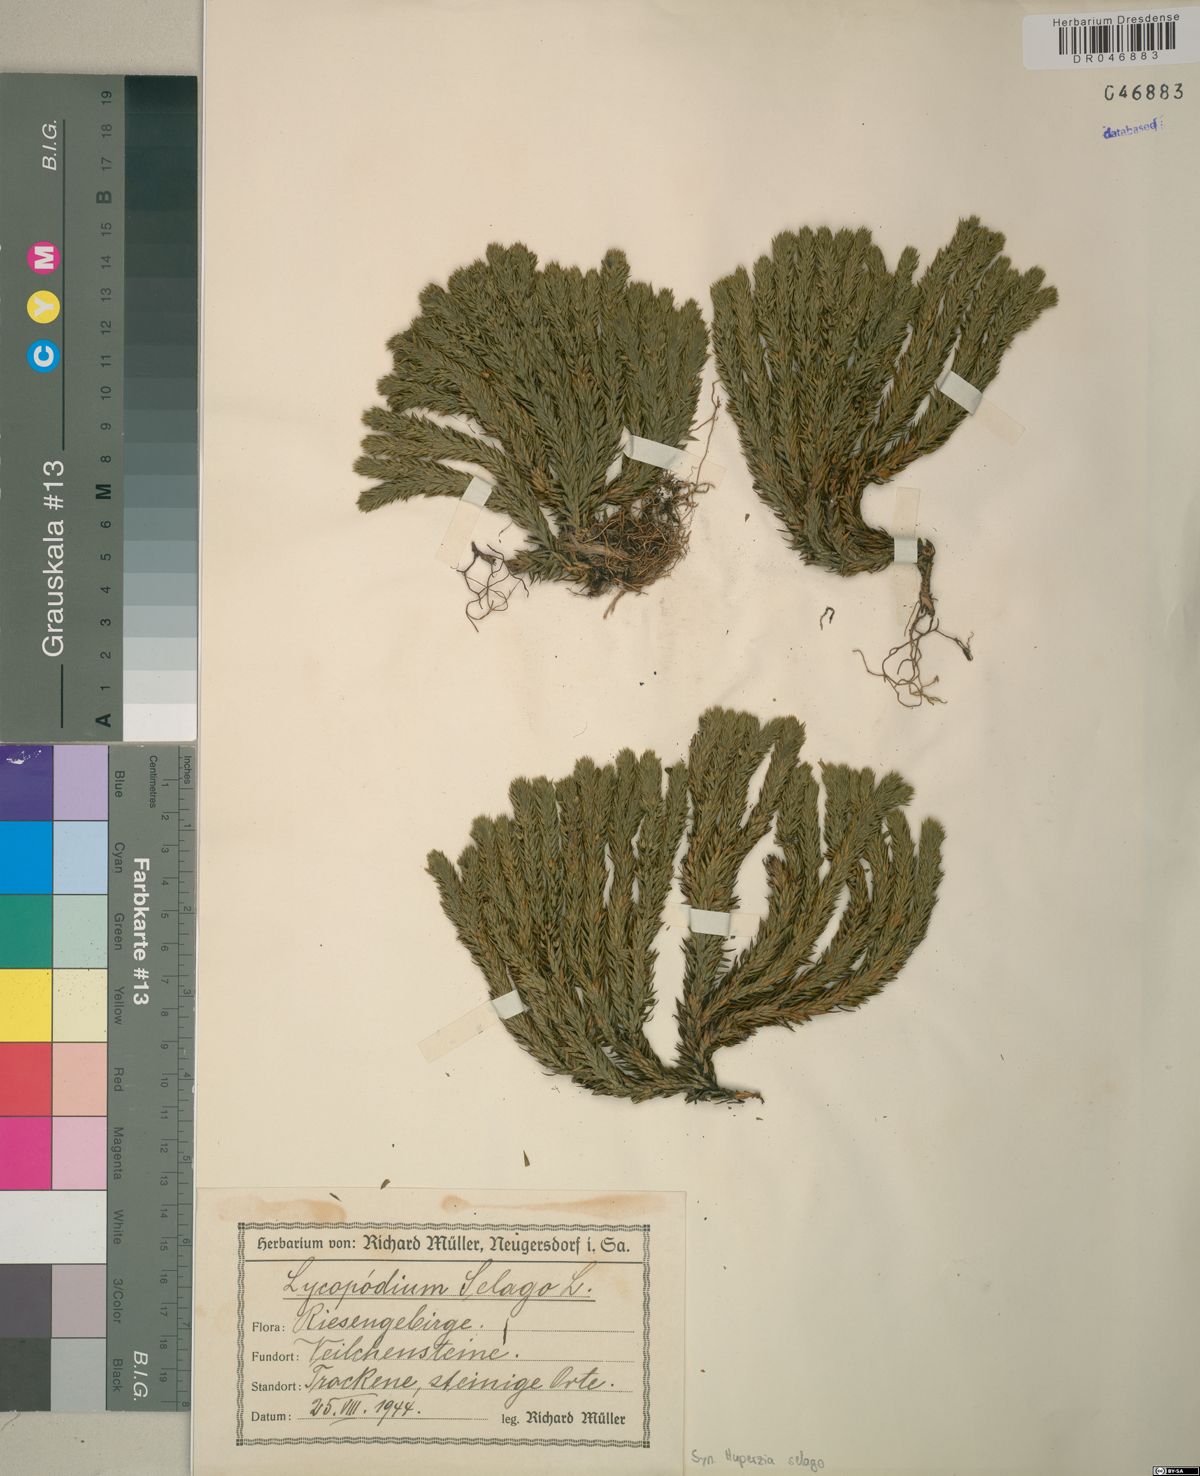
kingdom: Plantae
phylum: Tracheophyta
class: Lycopodiopsida
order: Lycopodiales
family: Lycopodiaceae
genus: Huperzia
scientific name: Huperzia selago
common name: Northern firmoss
